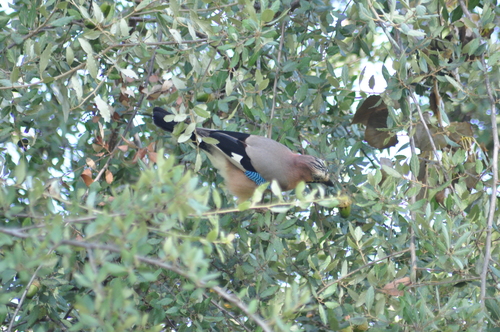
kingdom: Animalia
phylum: Chordata
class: Aves
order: Passeriformes
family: Corvidae
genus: Garrulus
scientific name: Garrulus glandarius
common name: Eurasian jay
